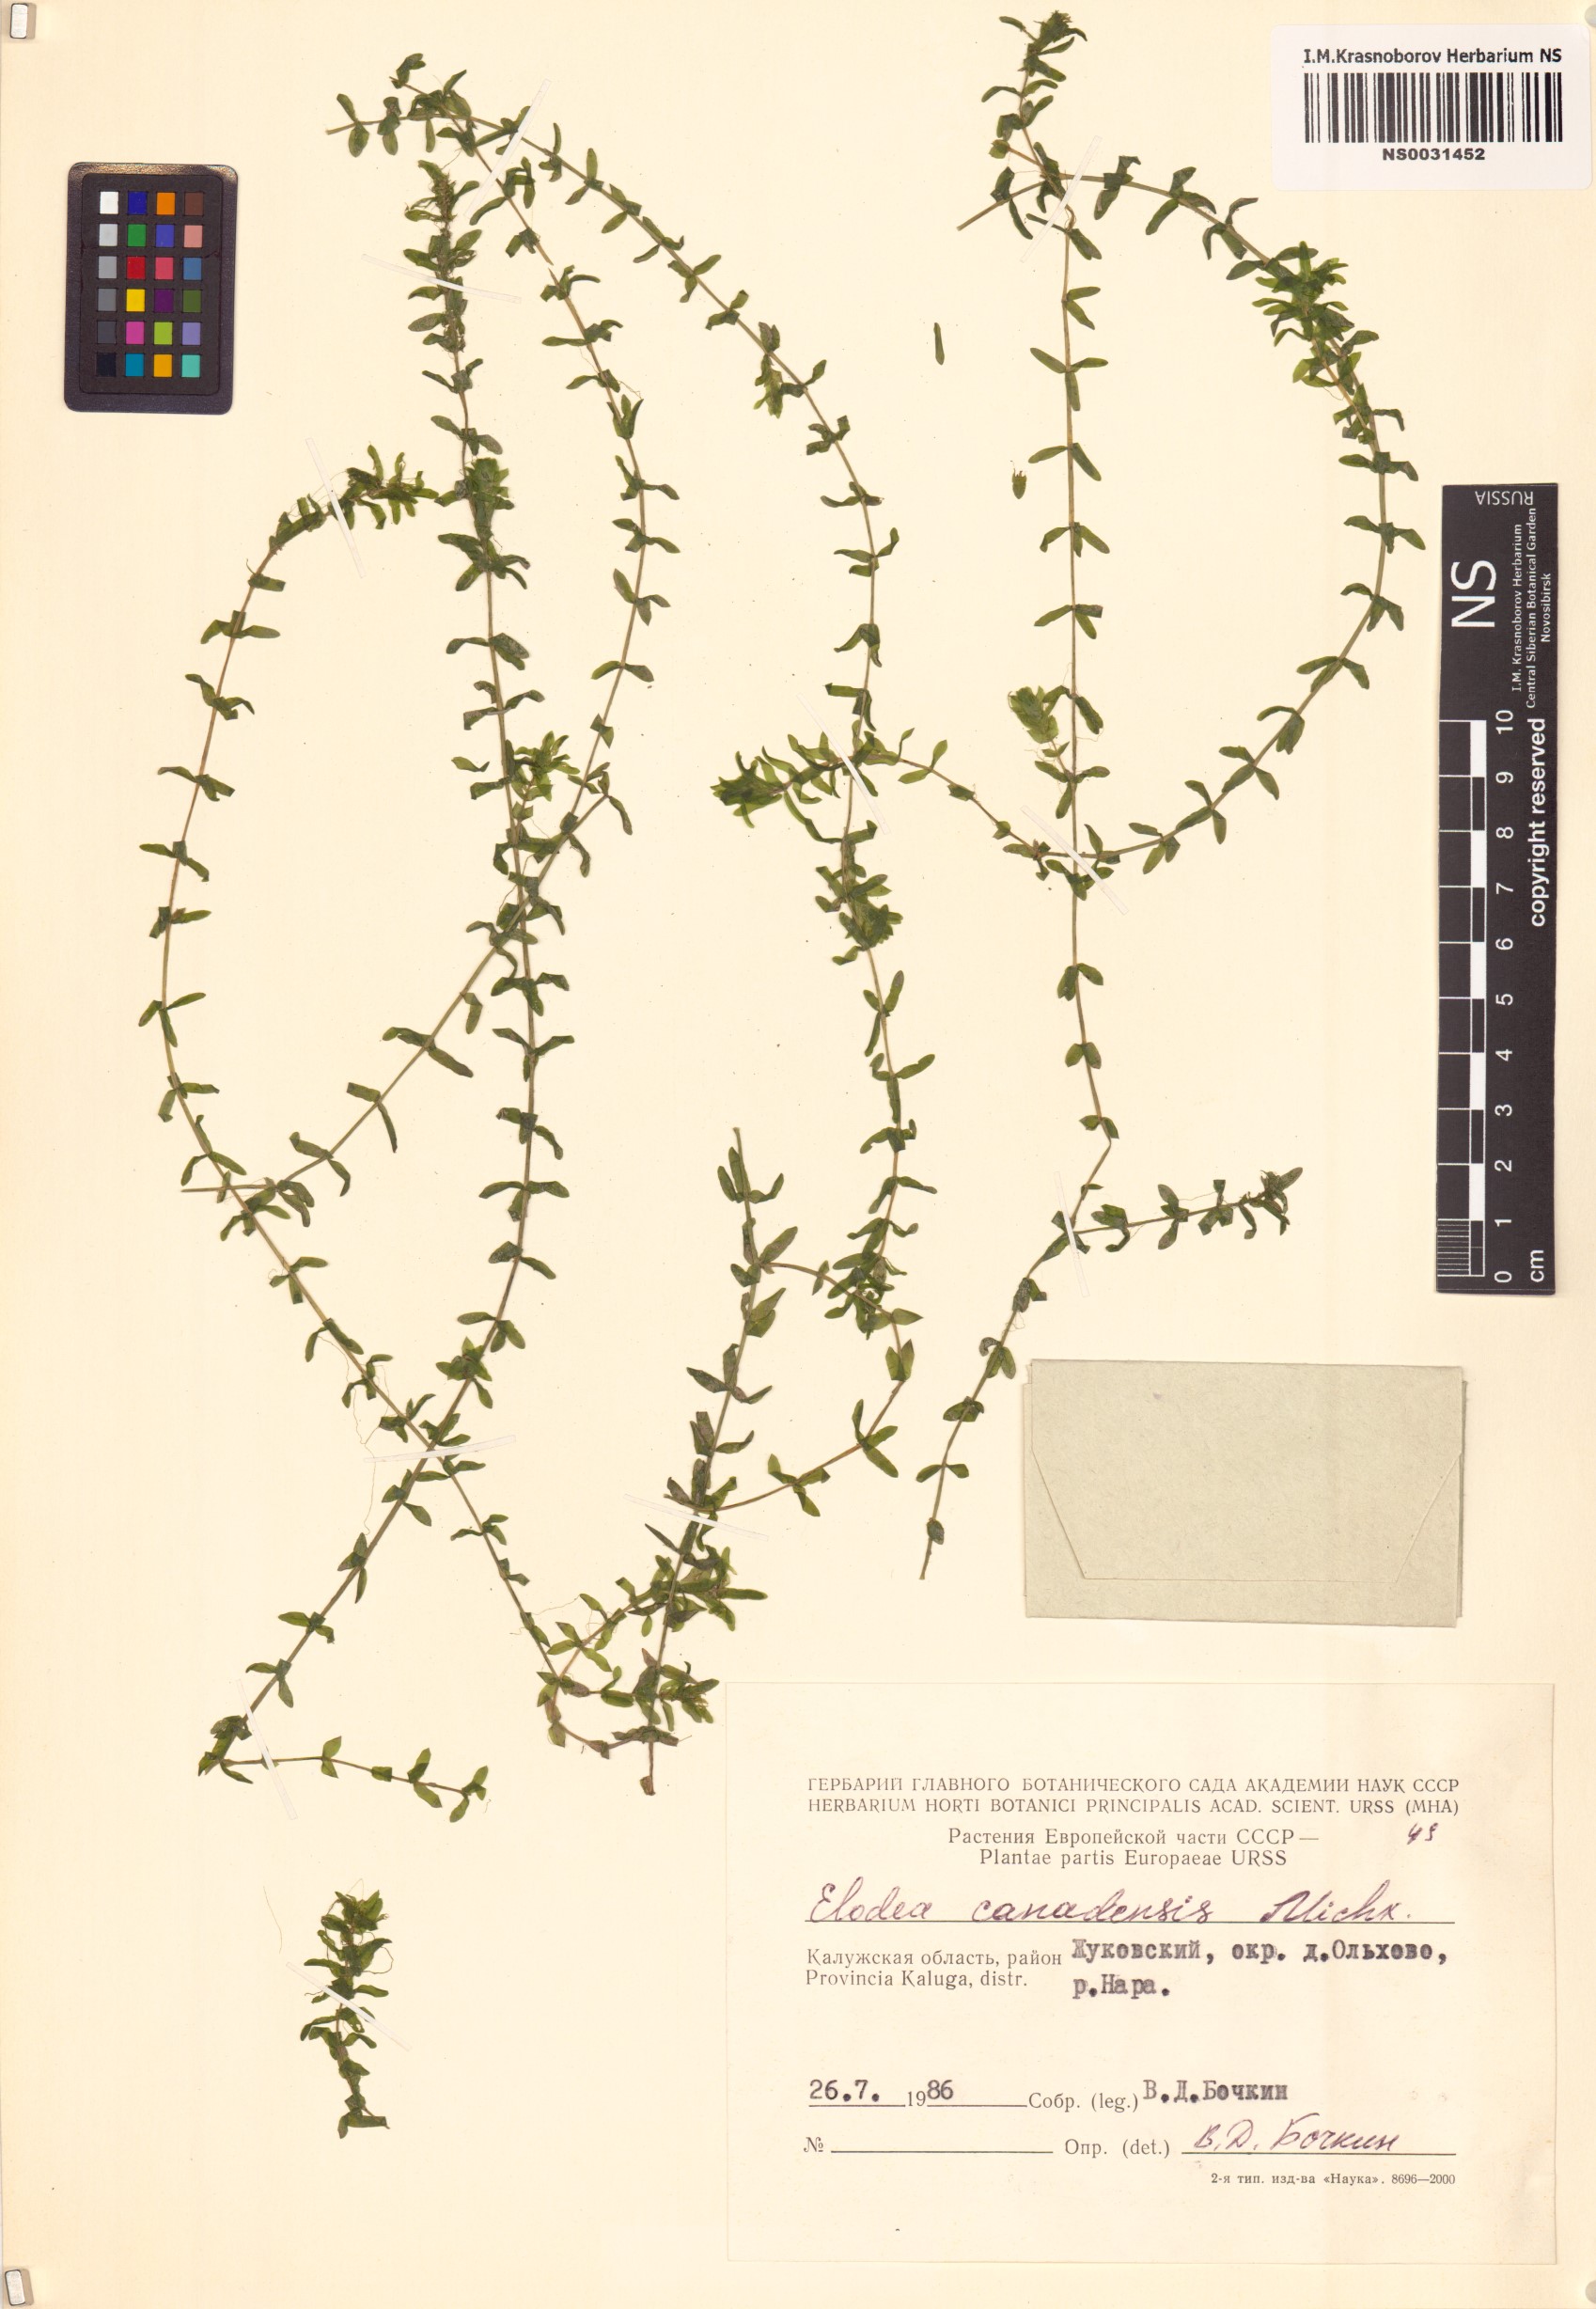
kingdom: Plantae
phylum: Tracheophyta
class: Liliopsida
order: Alismatales
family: Hydrocharitaceae
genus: Elodea
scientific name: Elodea canadensis
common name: Canadian waterweed
